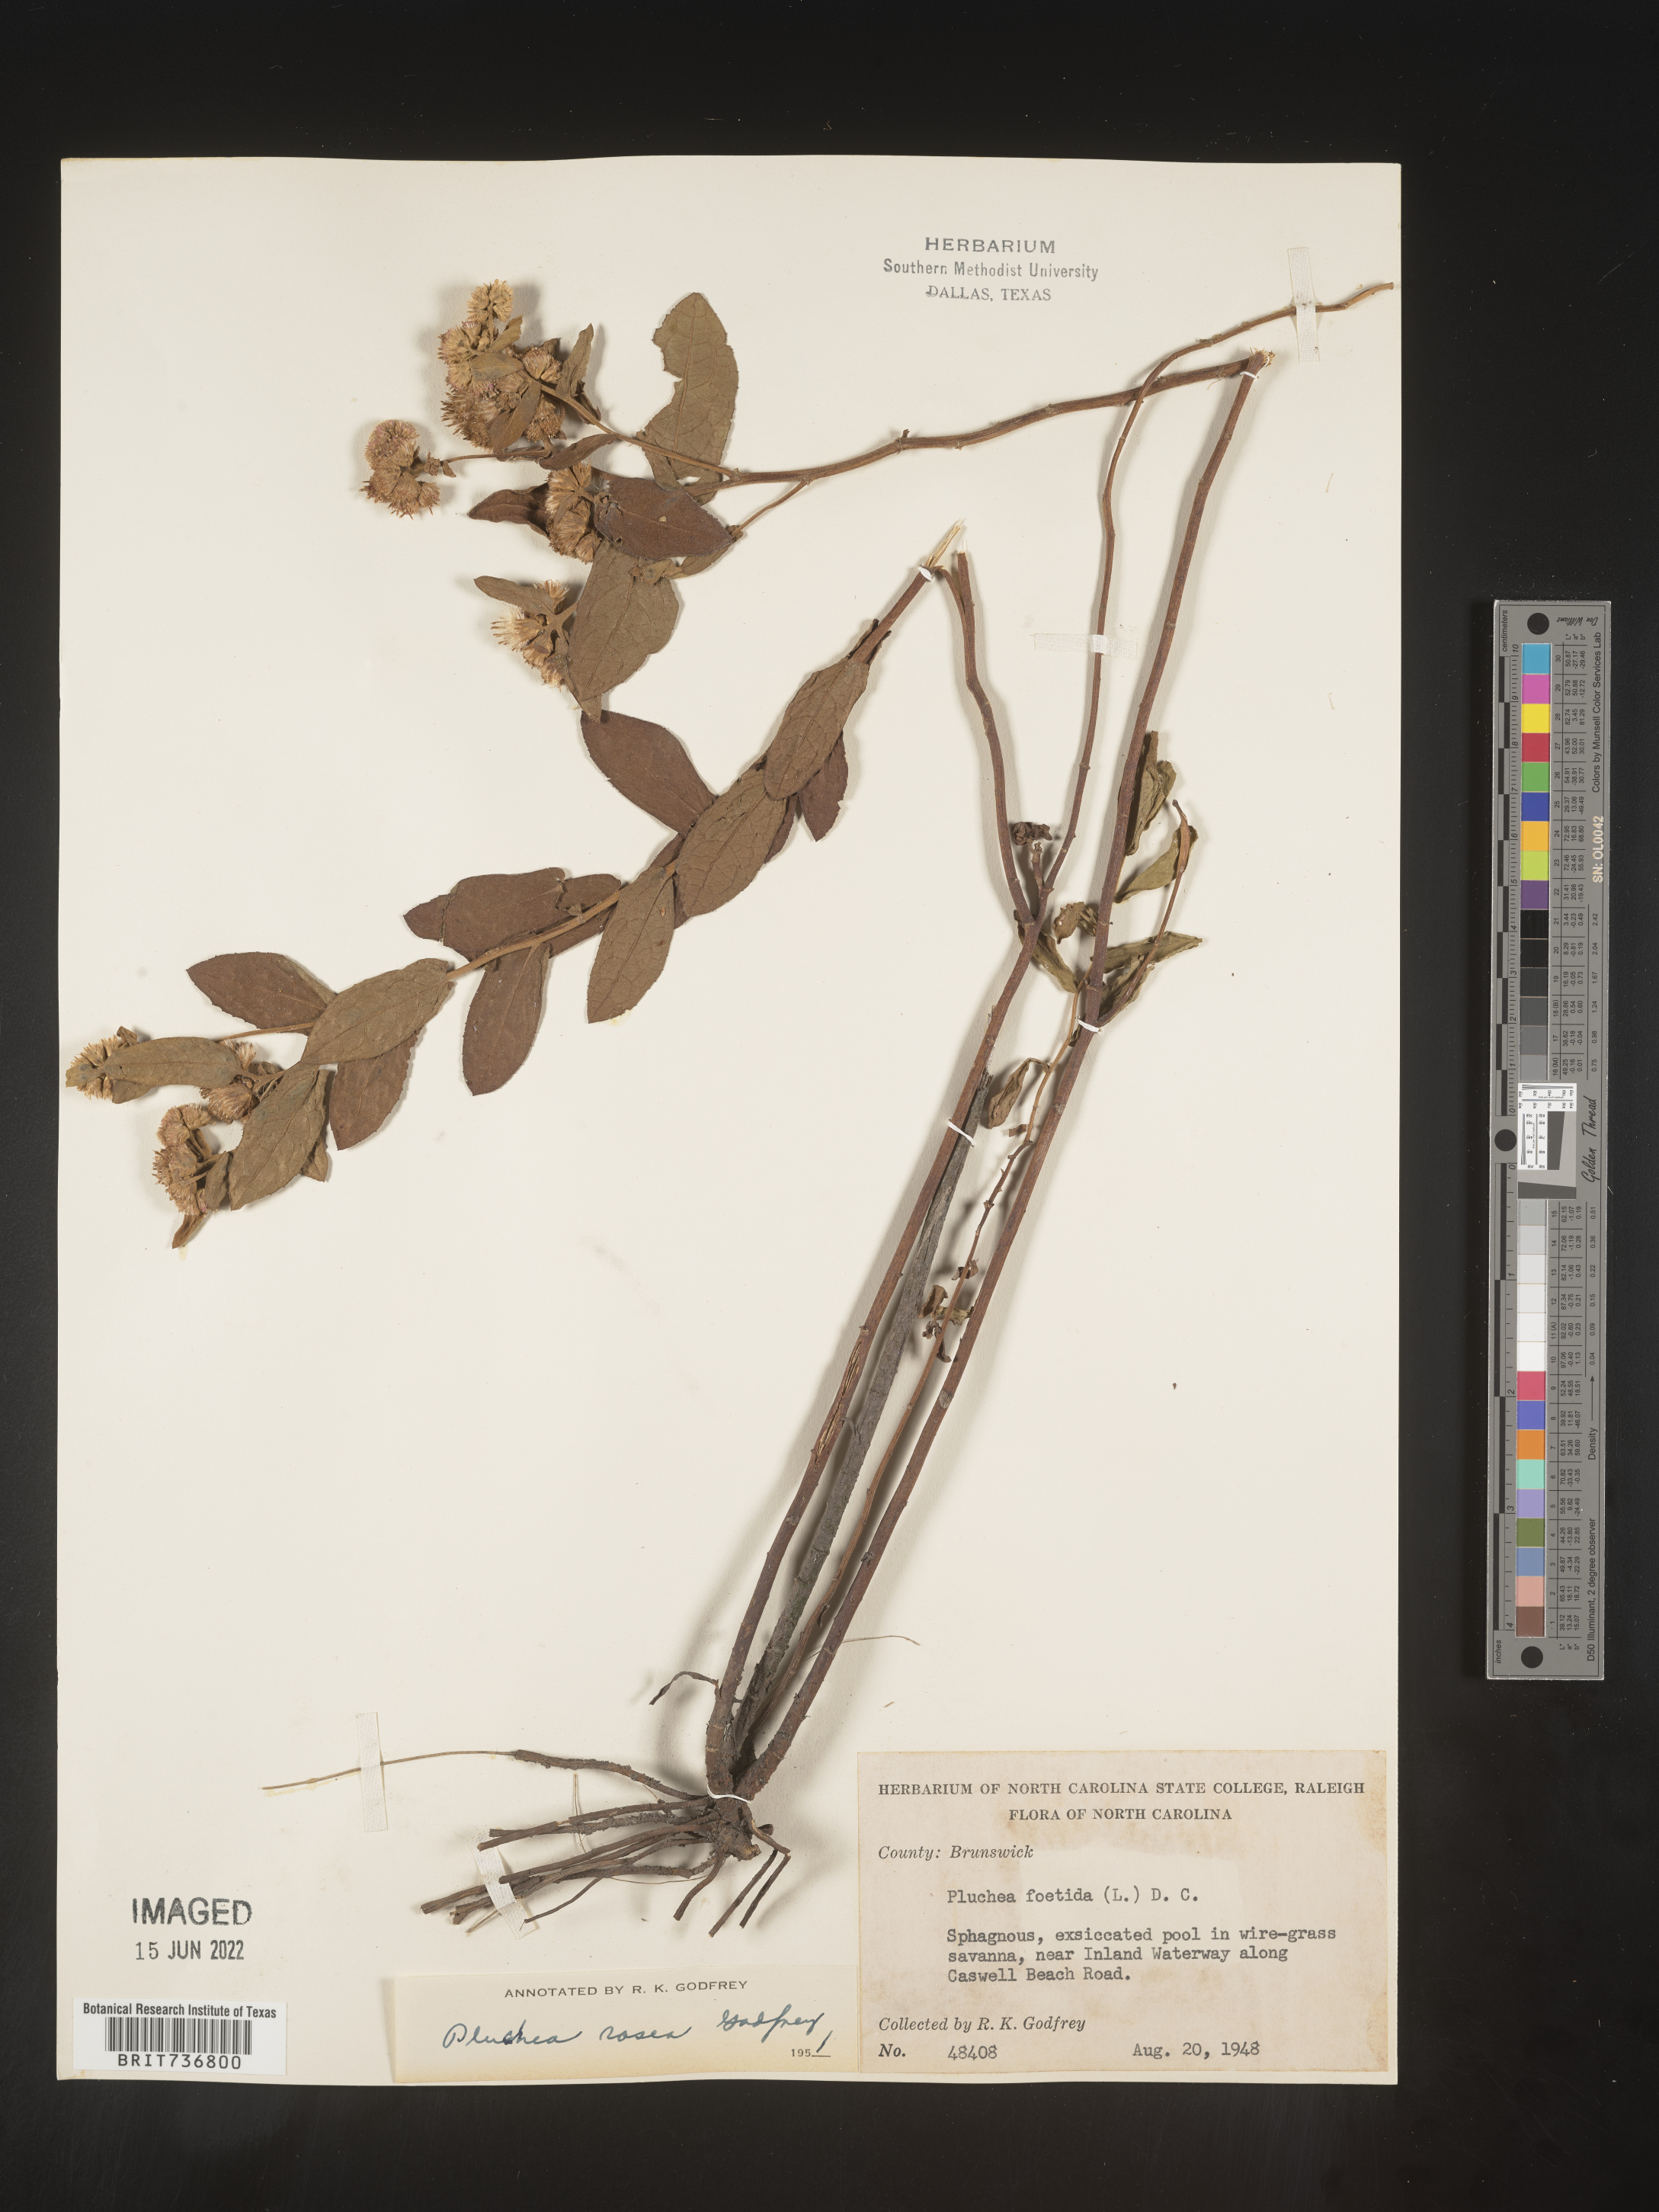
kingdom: Plantae
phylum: Tracheophyta
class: Magnoliopsida
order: Asterales
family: Asteraceae
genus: Pluchea
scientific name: Pluchea baccharis
